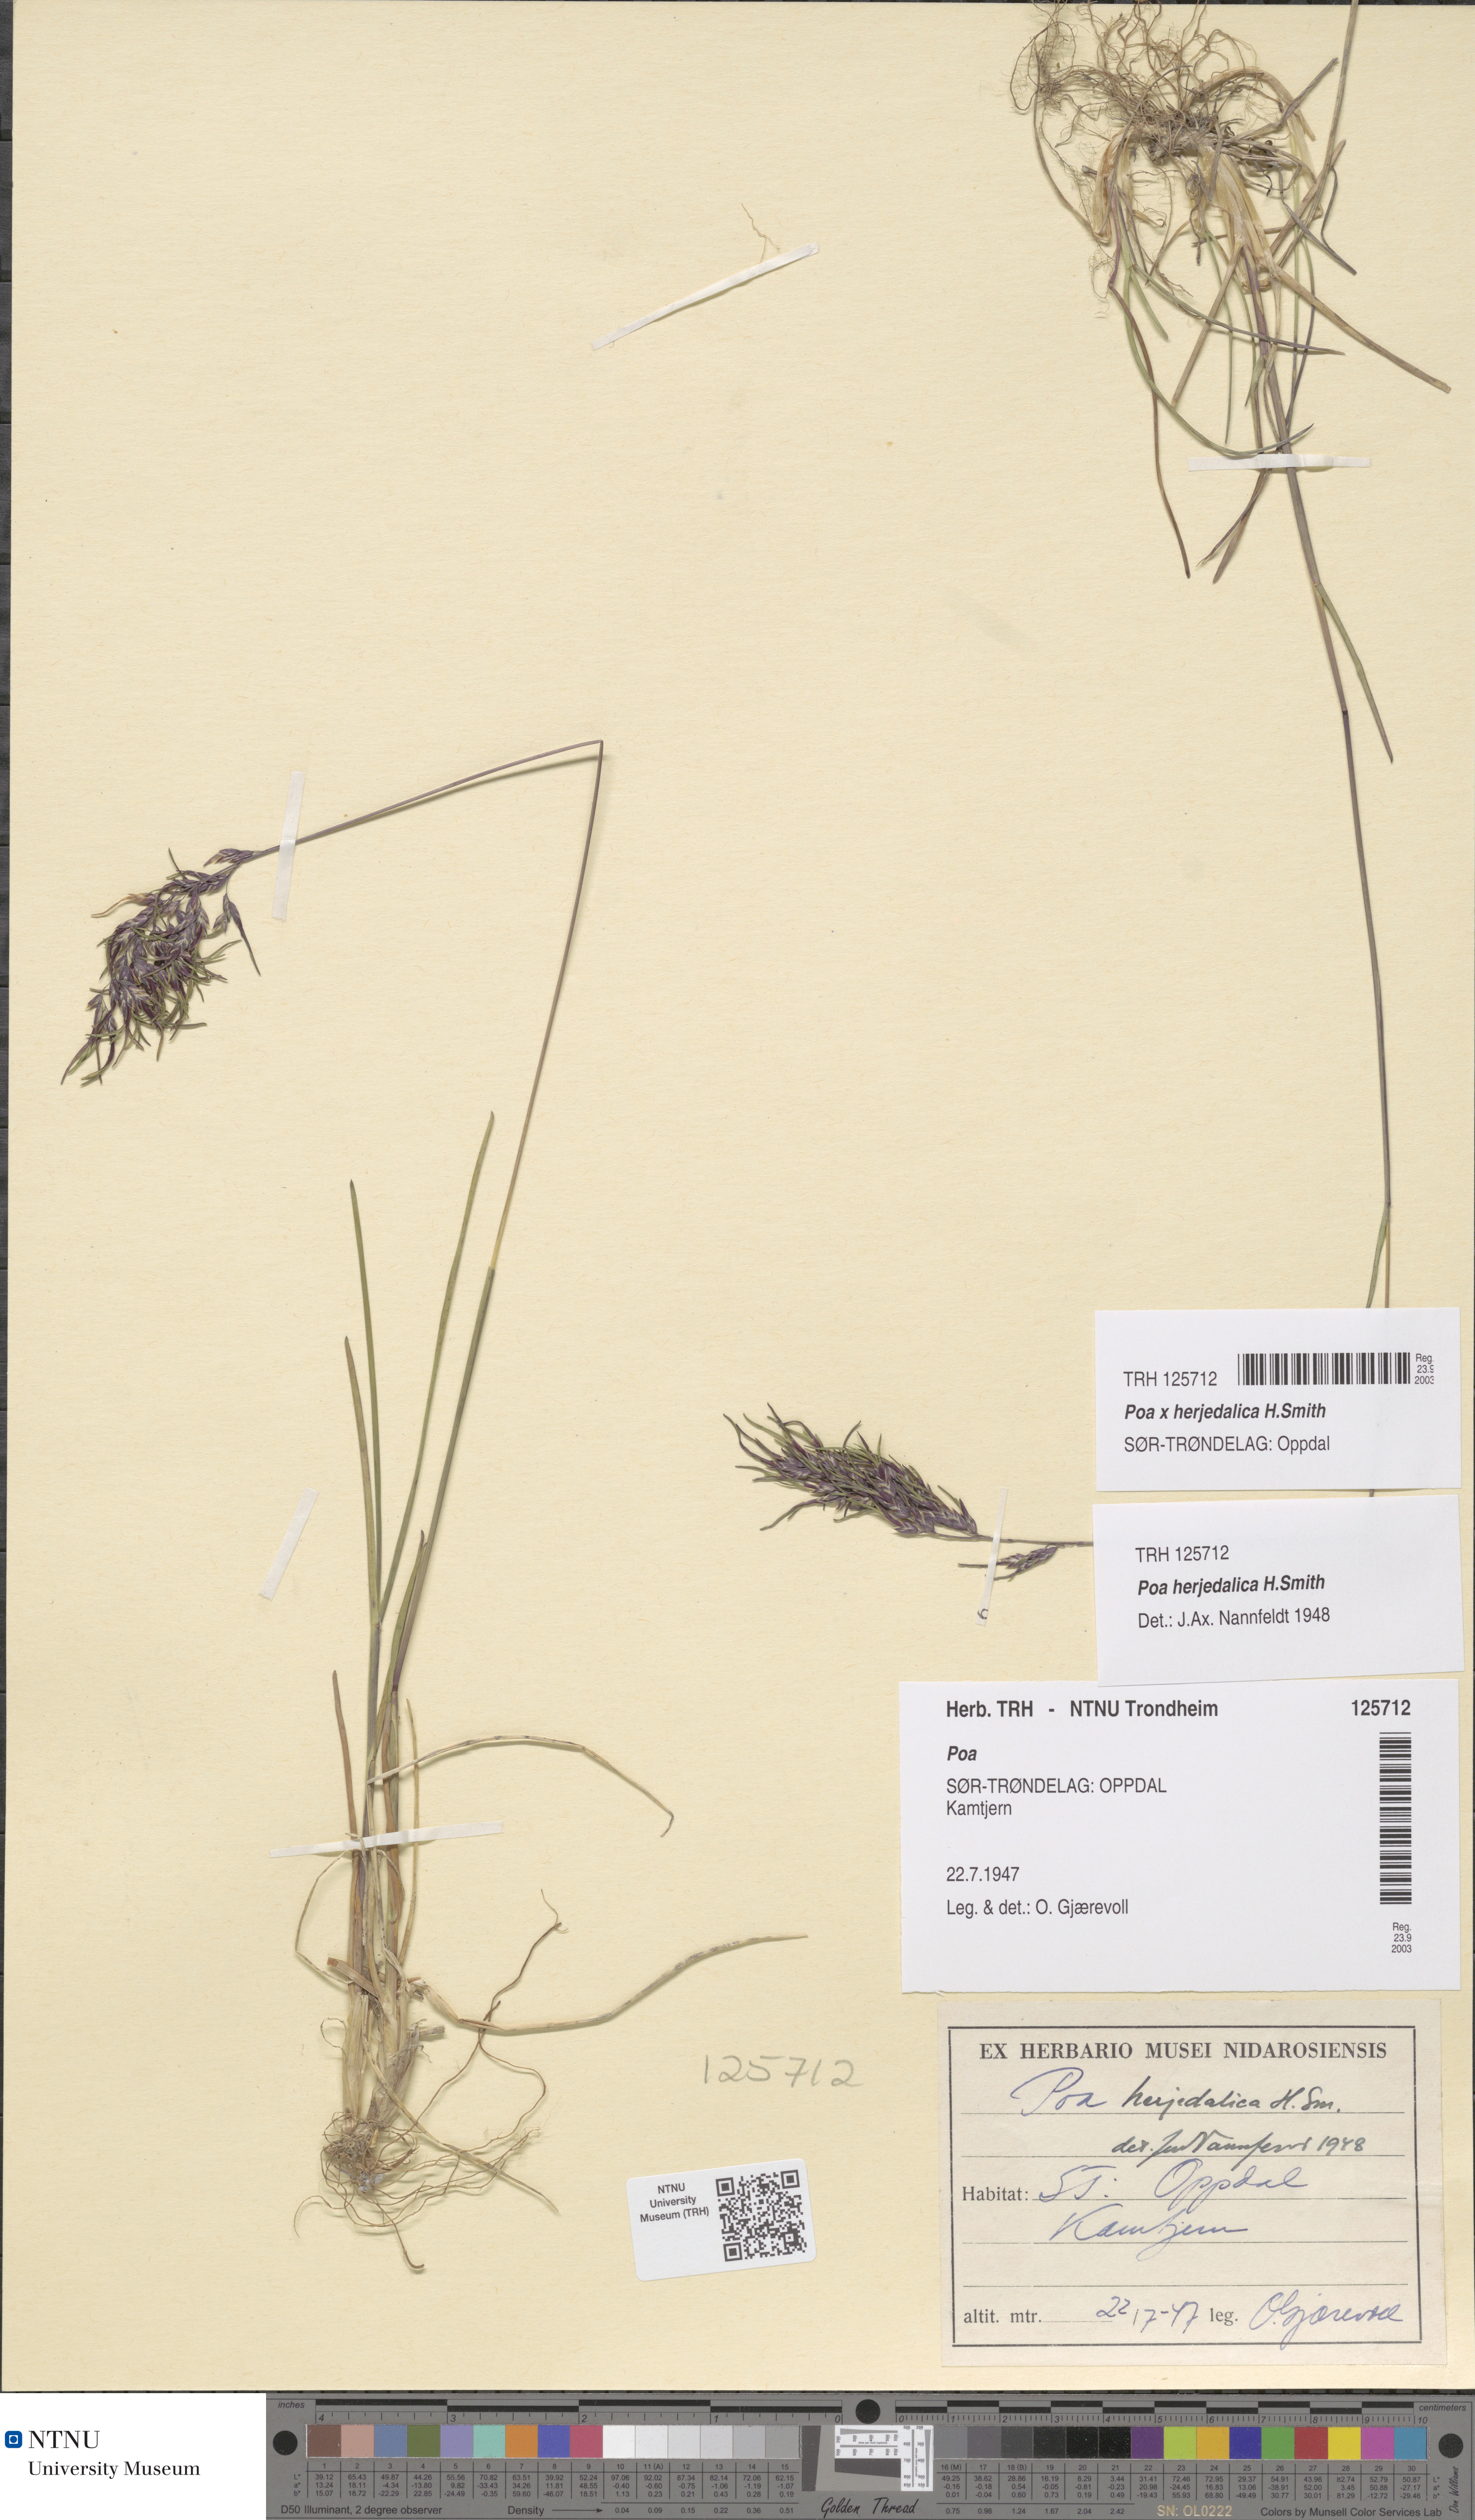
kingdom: Plantae
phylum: Tracheophyta
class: Liliopsida
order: Poales
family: Poaceae
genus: Poa
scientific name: Poa herjedalica
